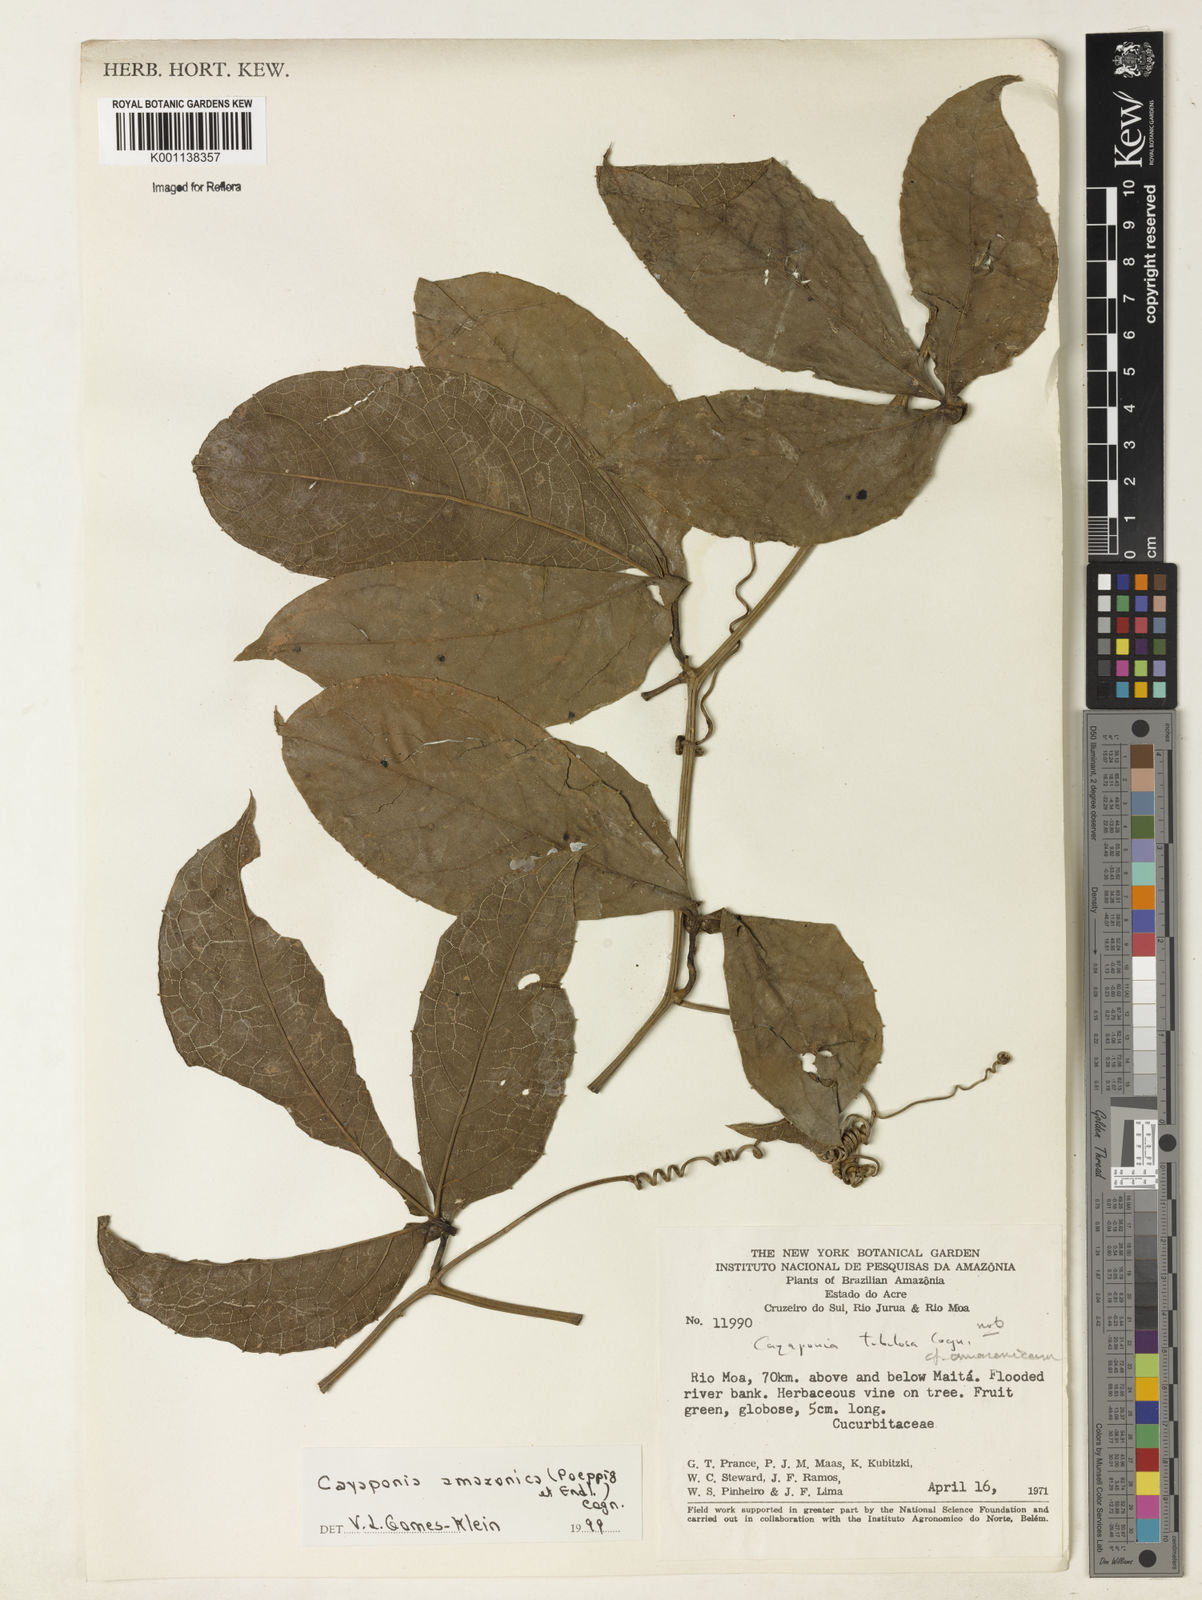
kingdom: Plantae
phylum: Tracheophyta
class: Magnoliopsida
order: Cucurbitales
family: Cucurbitaceae
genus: Cayaponia
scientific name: Cayaponia americana
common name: American melonleaf
